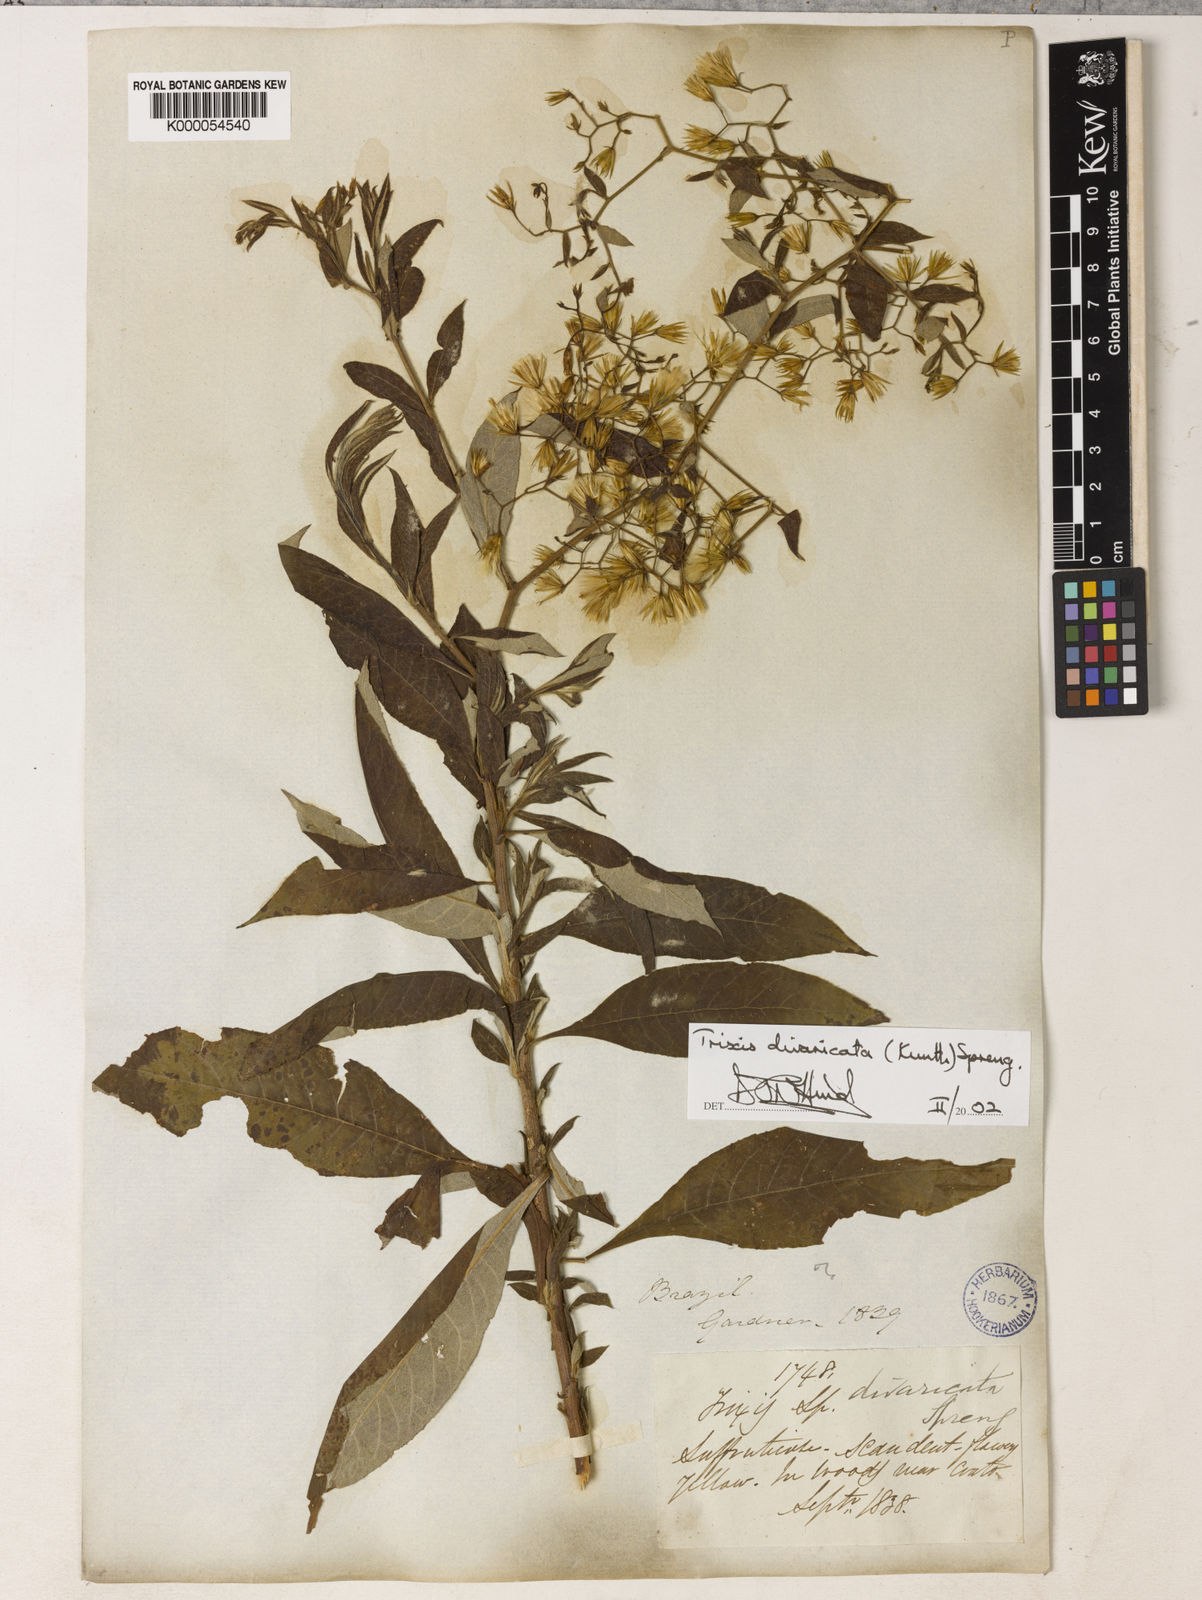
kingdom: Plantae
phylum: Tracheophyta
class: Magnoliopsida
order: Asterales
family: Asteraceae
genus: Trixis
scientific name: Trixis divaricata
